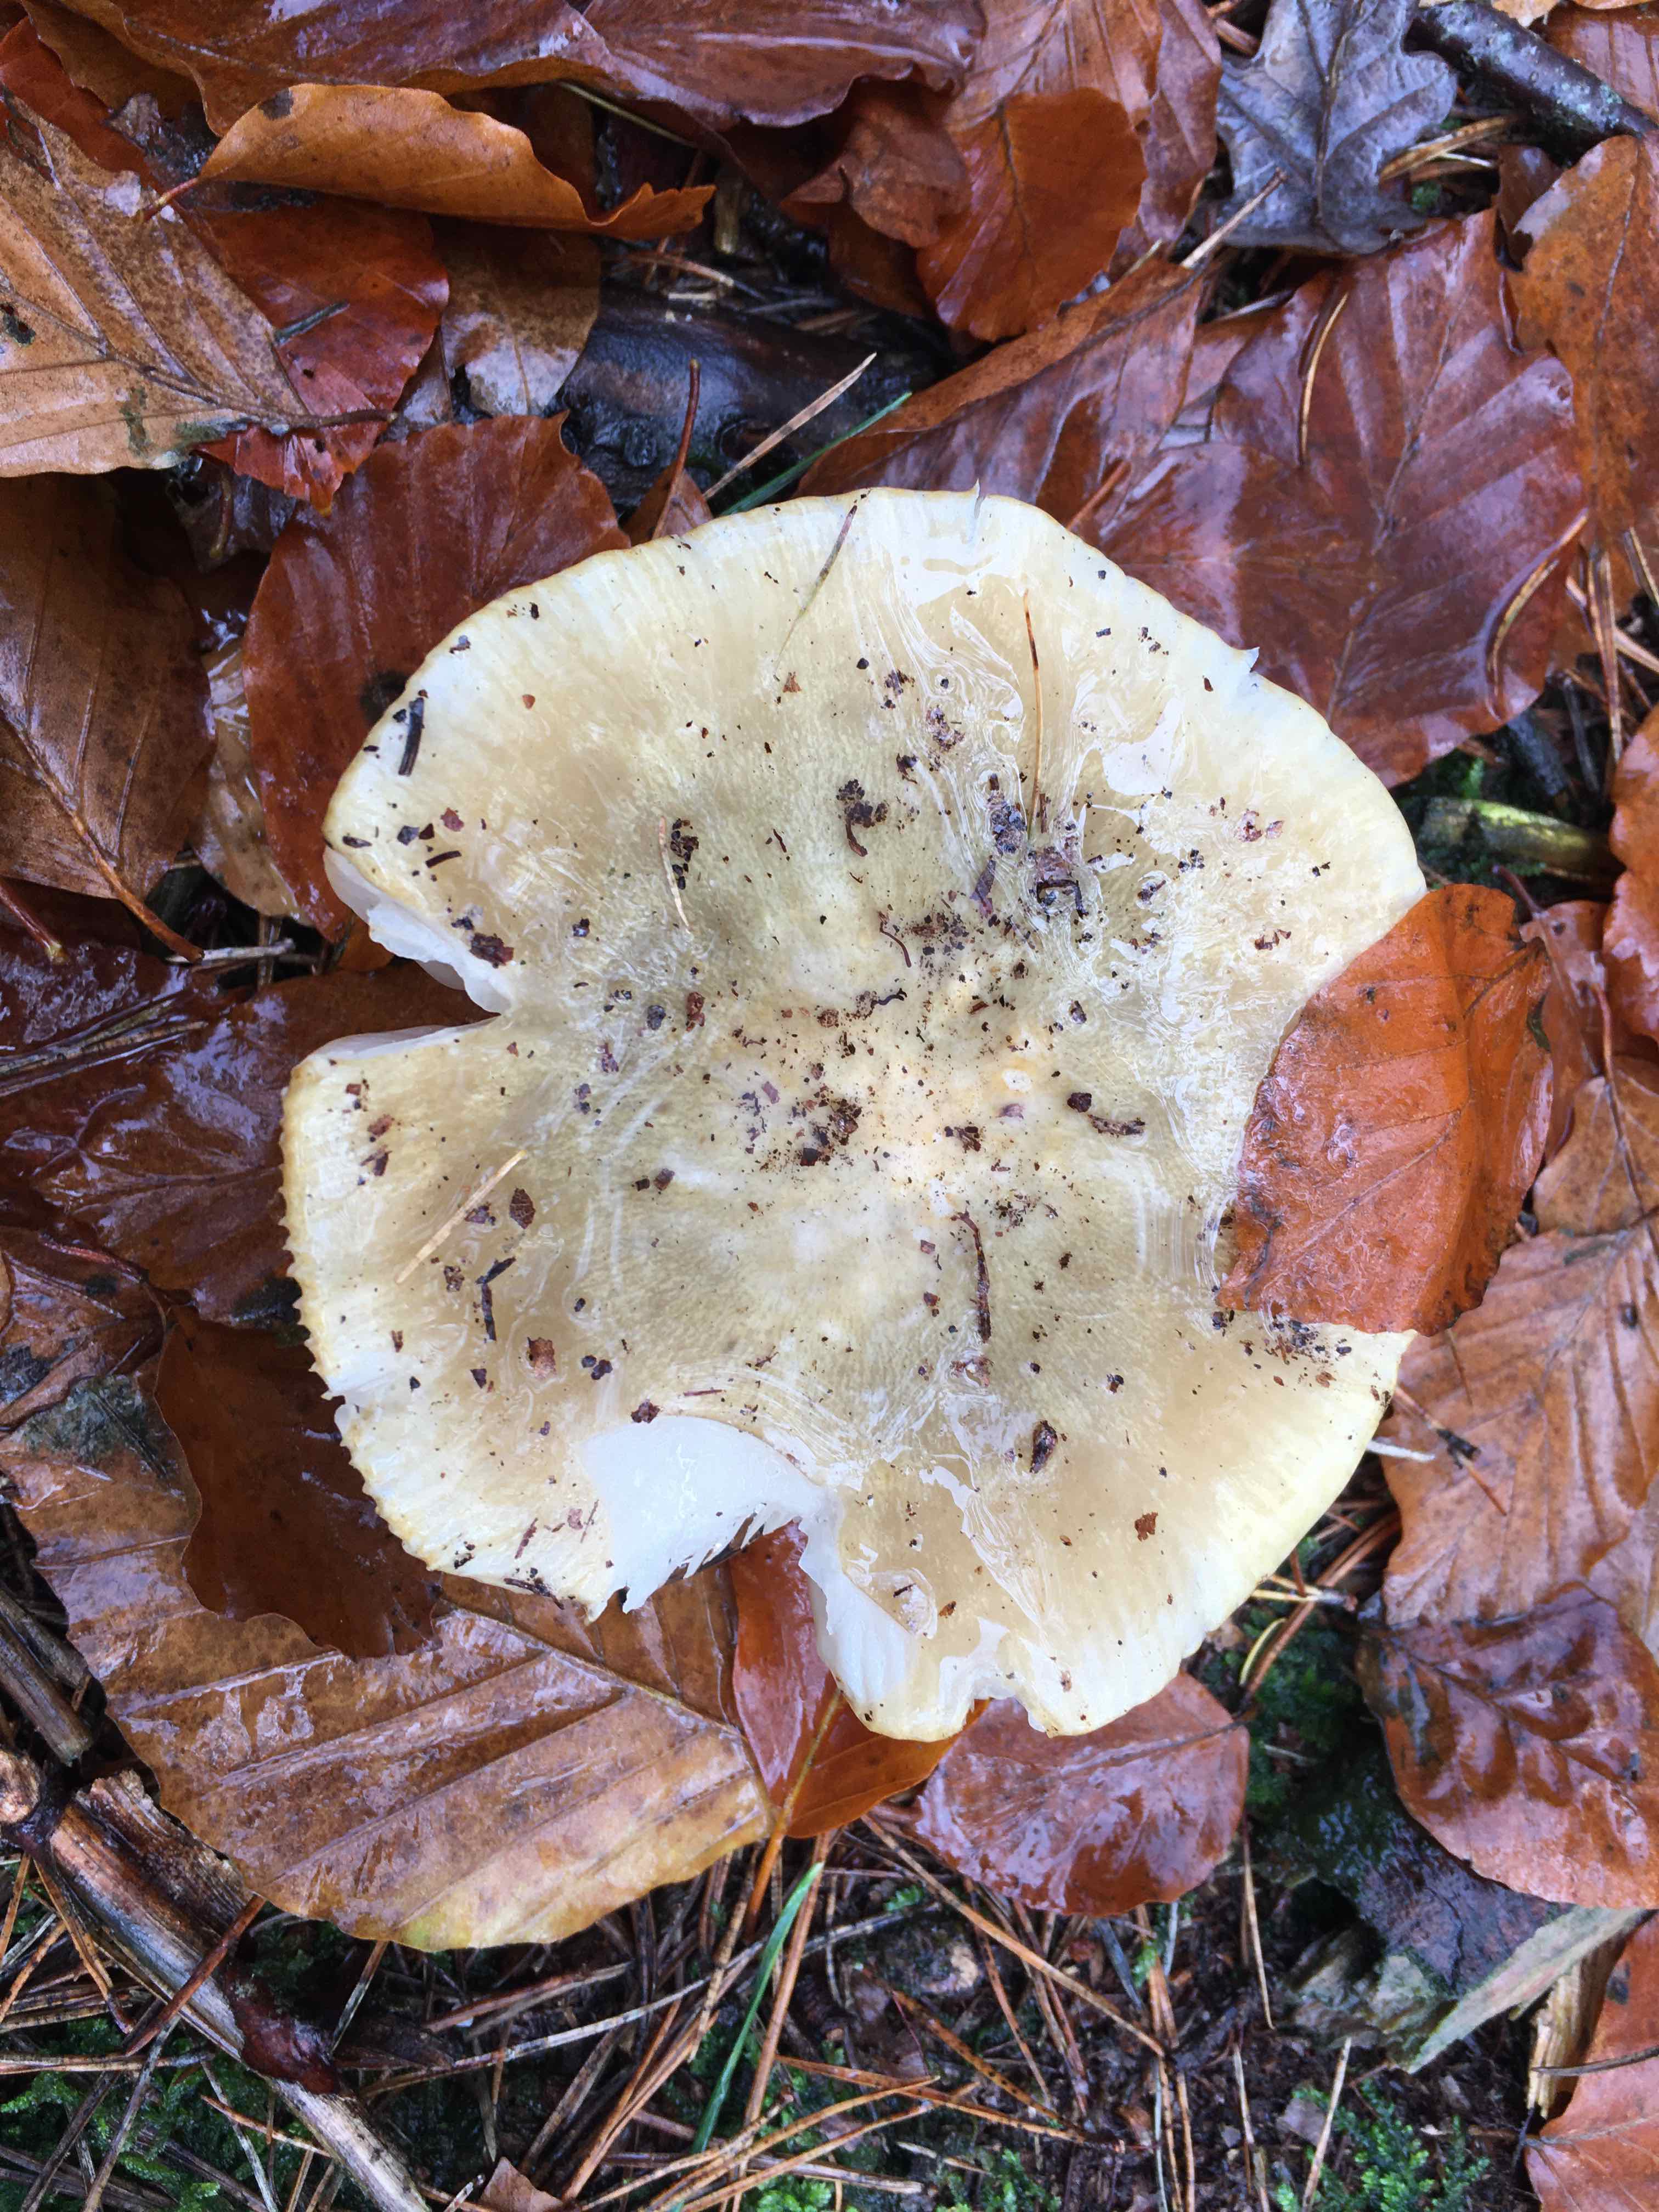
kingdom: Fungi
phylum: Basidiomycota
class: Agaricomycetes
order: Russulales
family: Russulaceae
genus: Russula
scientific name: Russula ochroleuca
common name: okkergul skørhat
